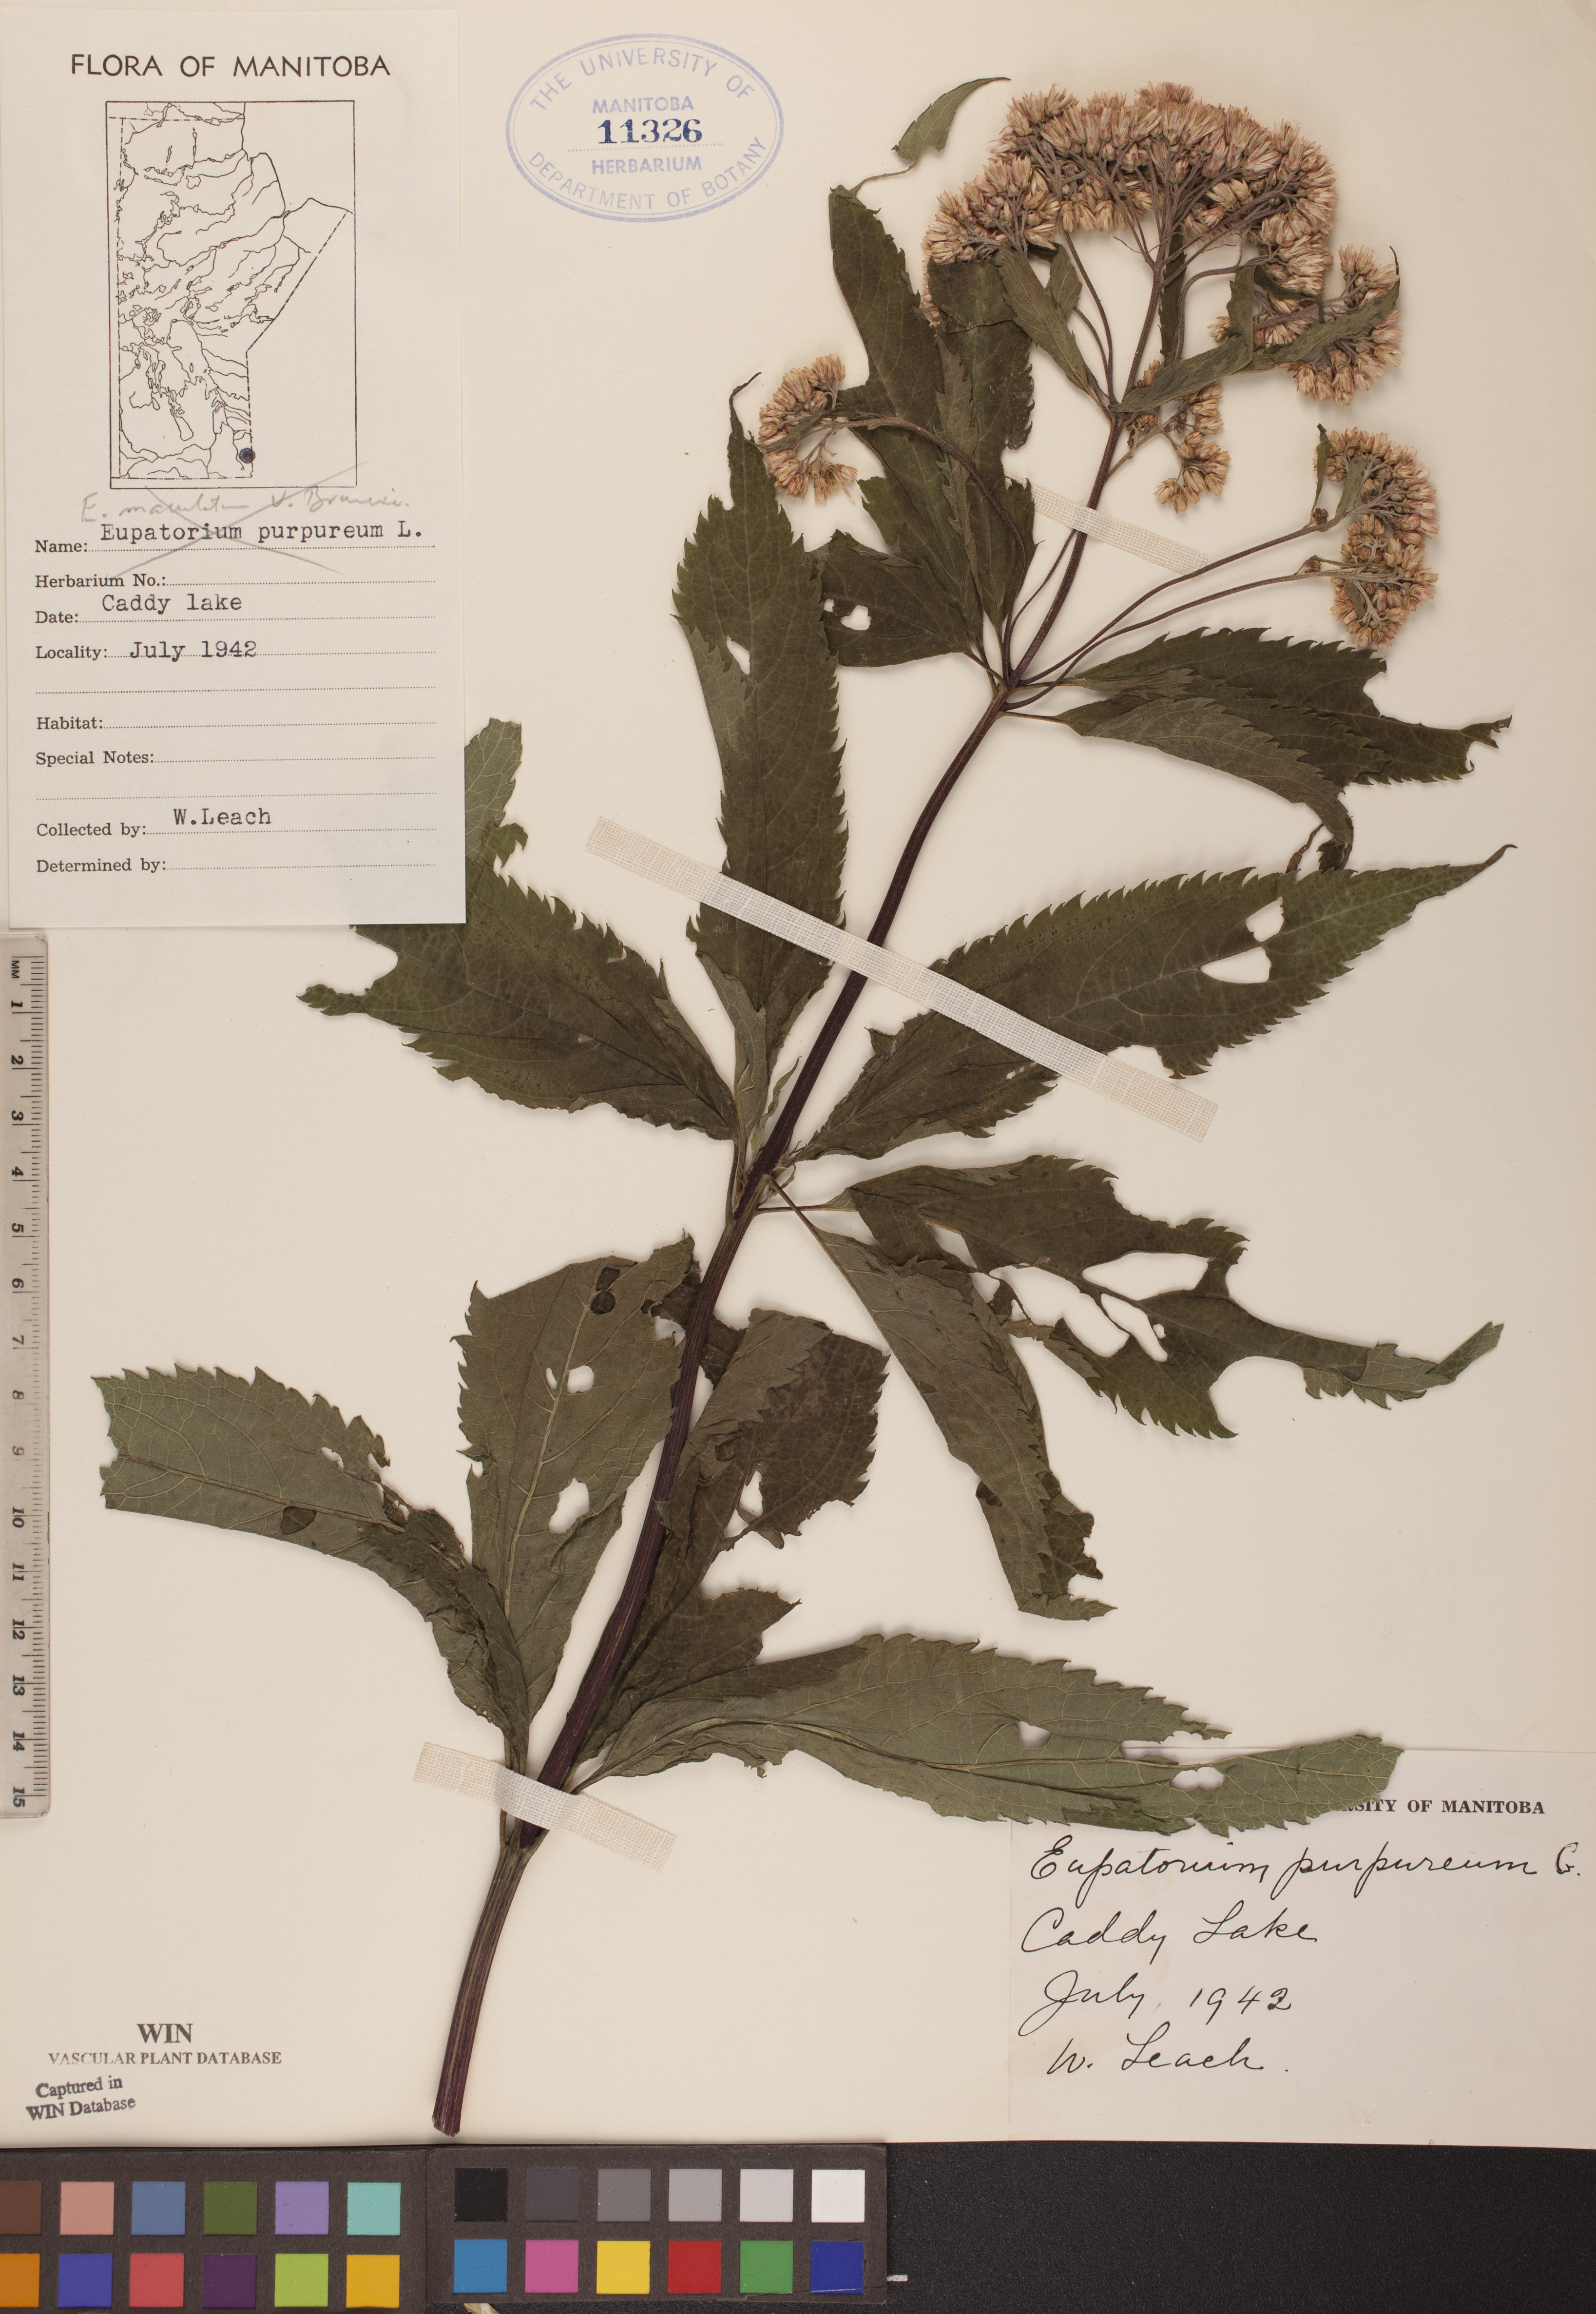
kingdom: Plantae
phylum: Tracheophyta
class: Magnoliopsida
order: Asterales
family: Asteraceae
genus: Eupatorium
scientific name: Eupatorium quaternum
